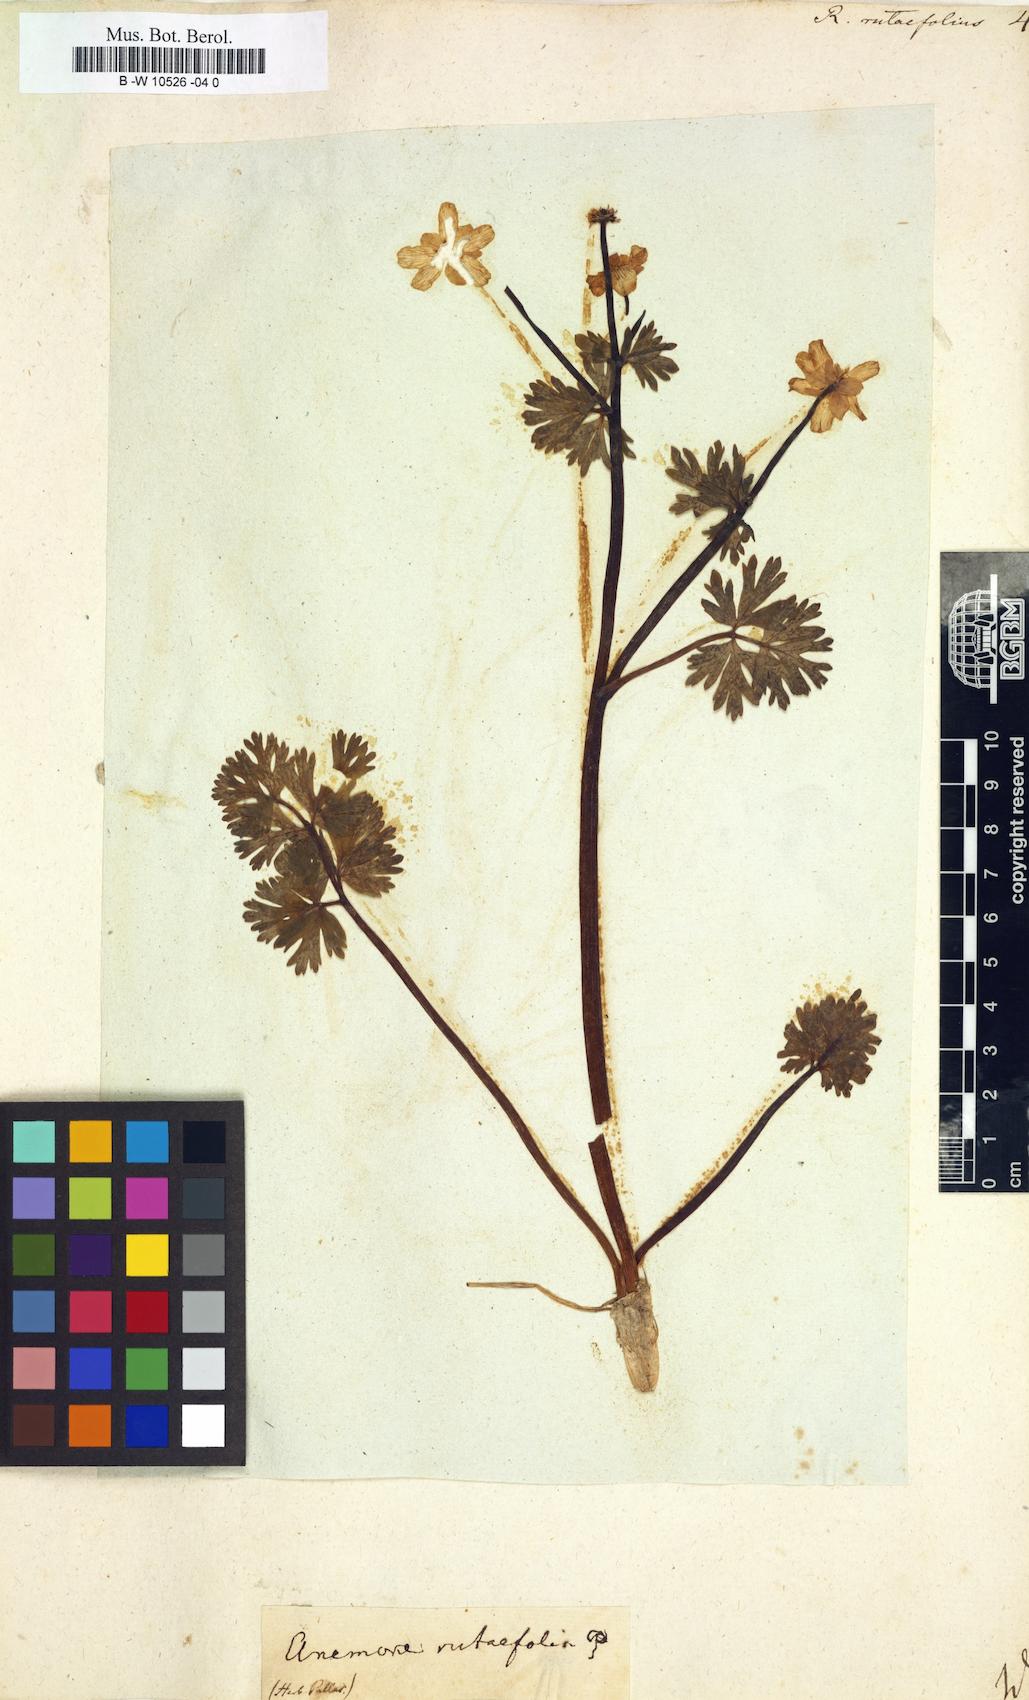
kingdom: Plantae
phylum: Tracheophyta
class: Magnoliopsida
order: Ranunculales
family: Ranunculaceae
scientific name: Ranunculaceae
